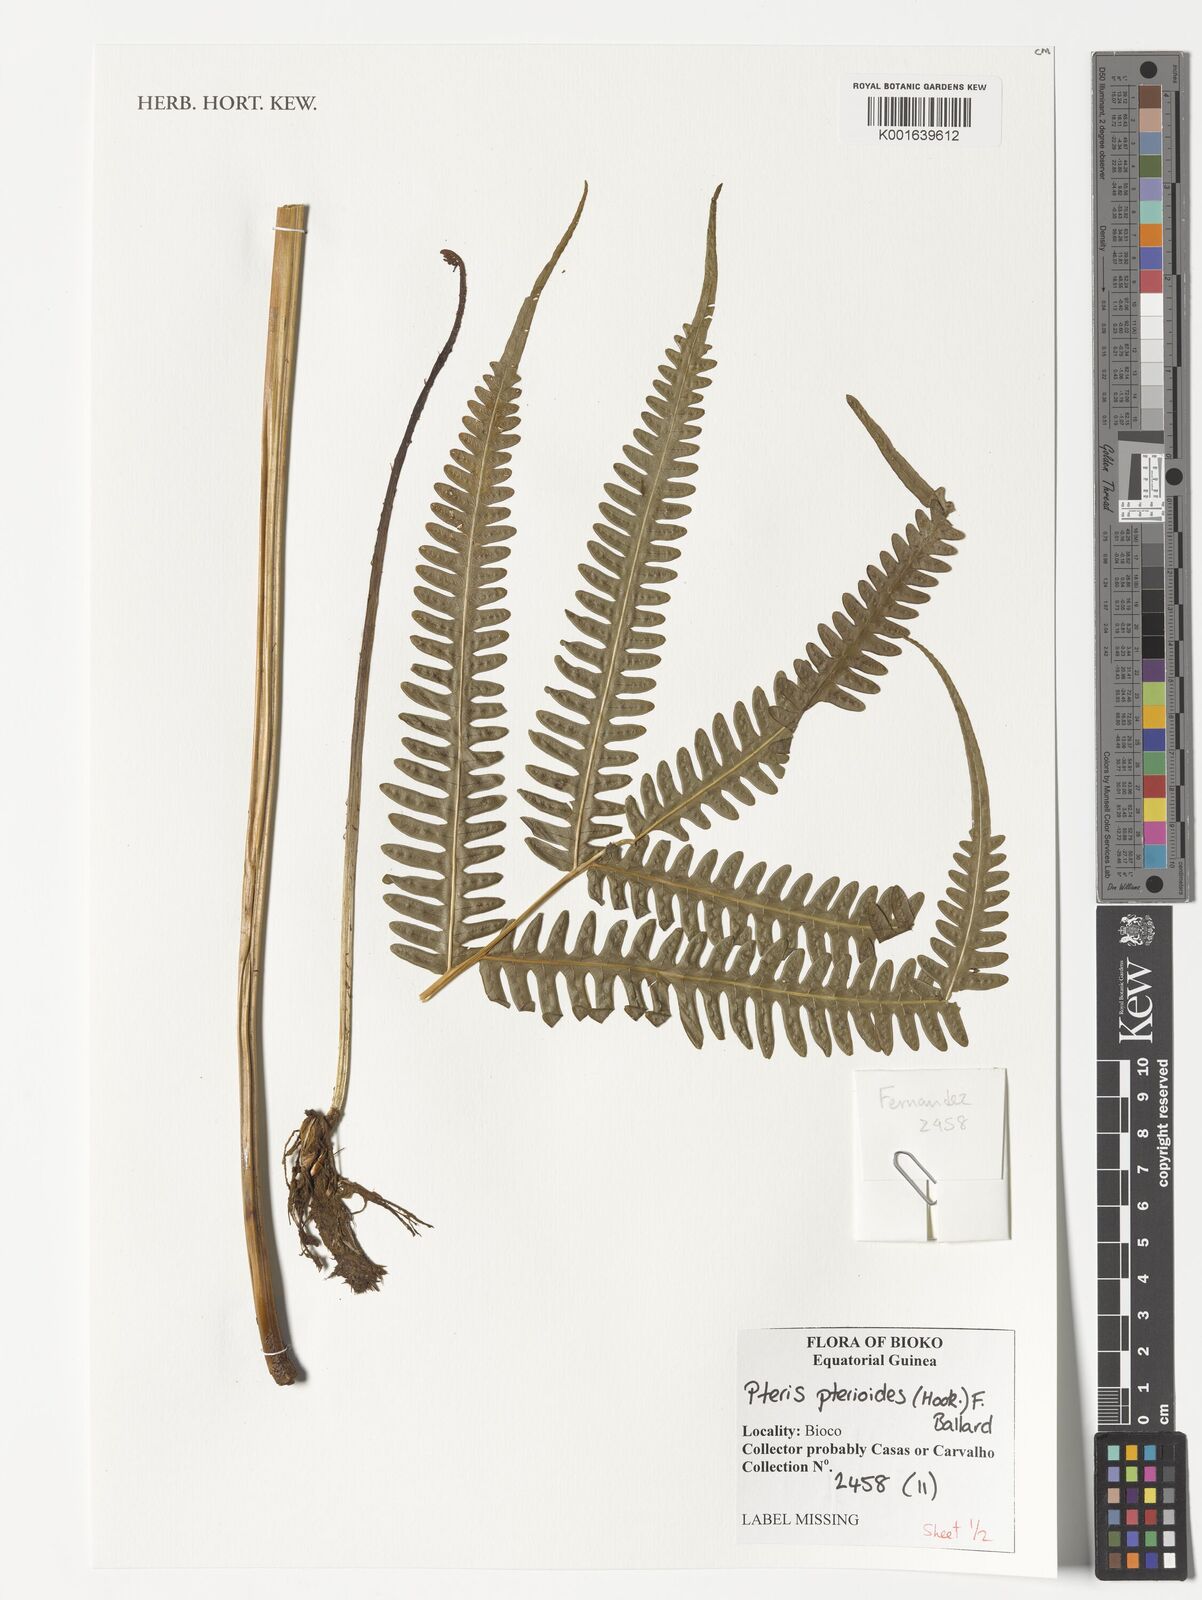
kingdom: Plantae
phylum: Tracheophyta
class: Polypodiopsida
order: Polypodiales
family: Pteridaceae
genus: Pteris
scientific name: Pteris pteridioides
